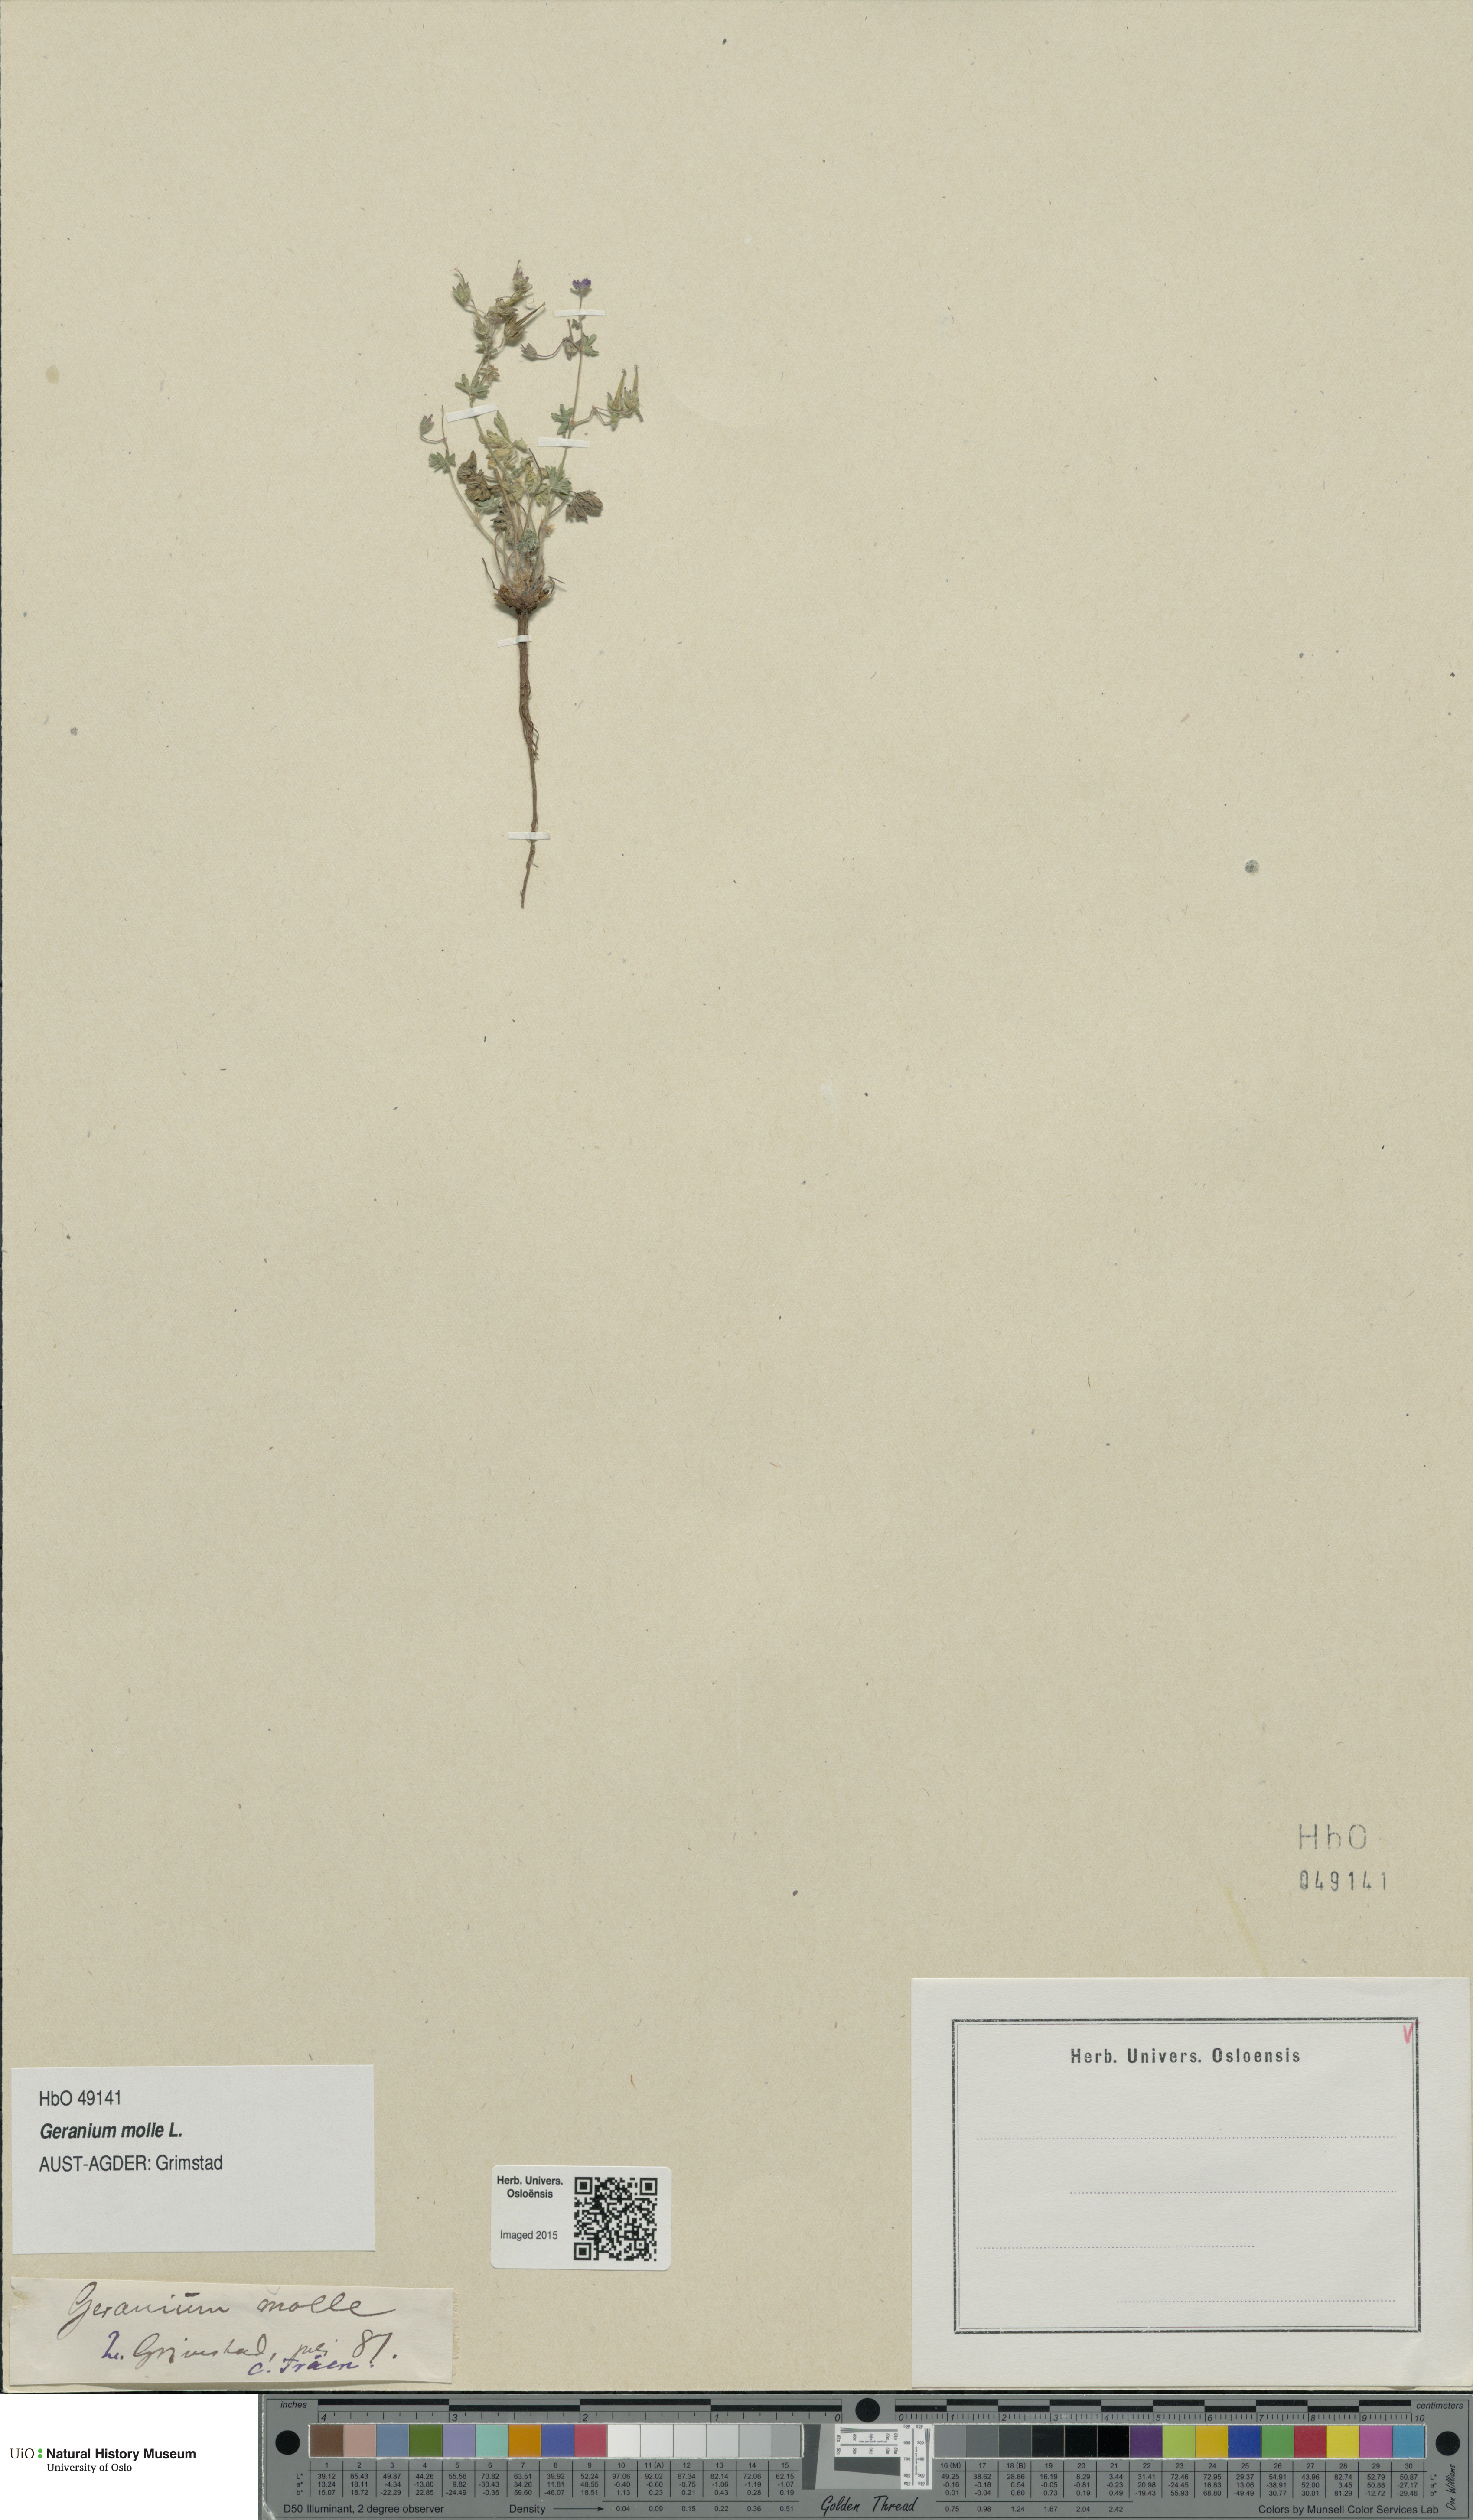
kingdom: Plantae
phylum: Tracheophyta
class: Magnoliopsida
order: Geraniales
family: Geraniaceae
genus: Geranium
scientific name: Geranium molle
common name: Dove's-foot crane's-bill
